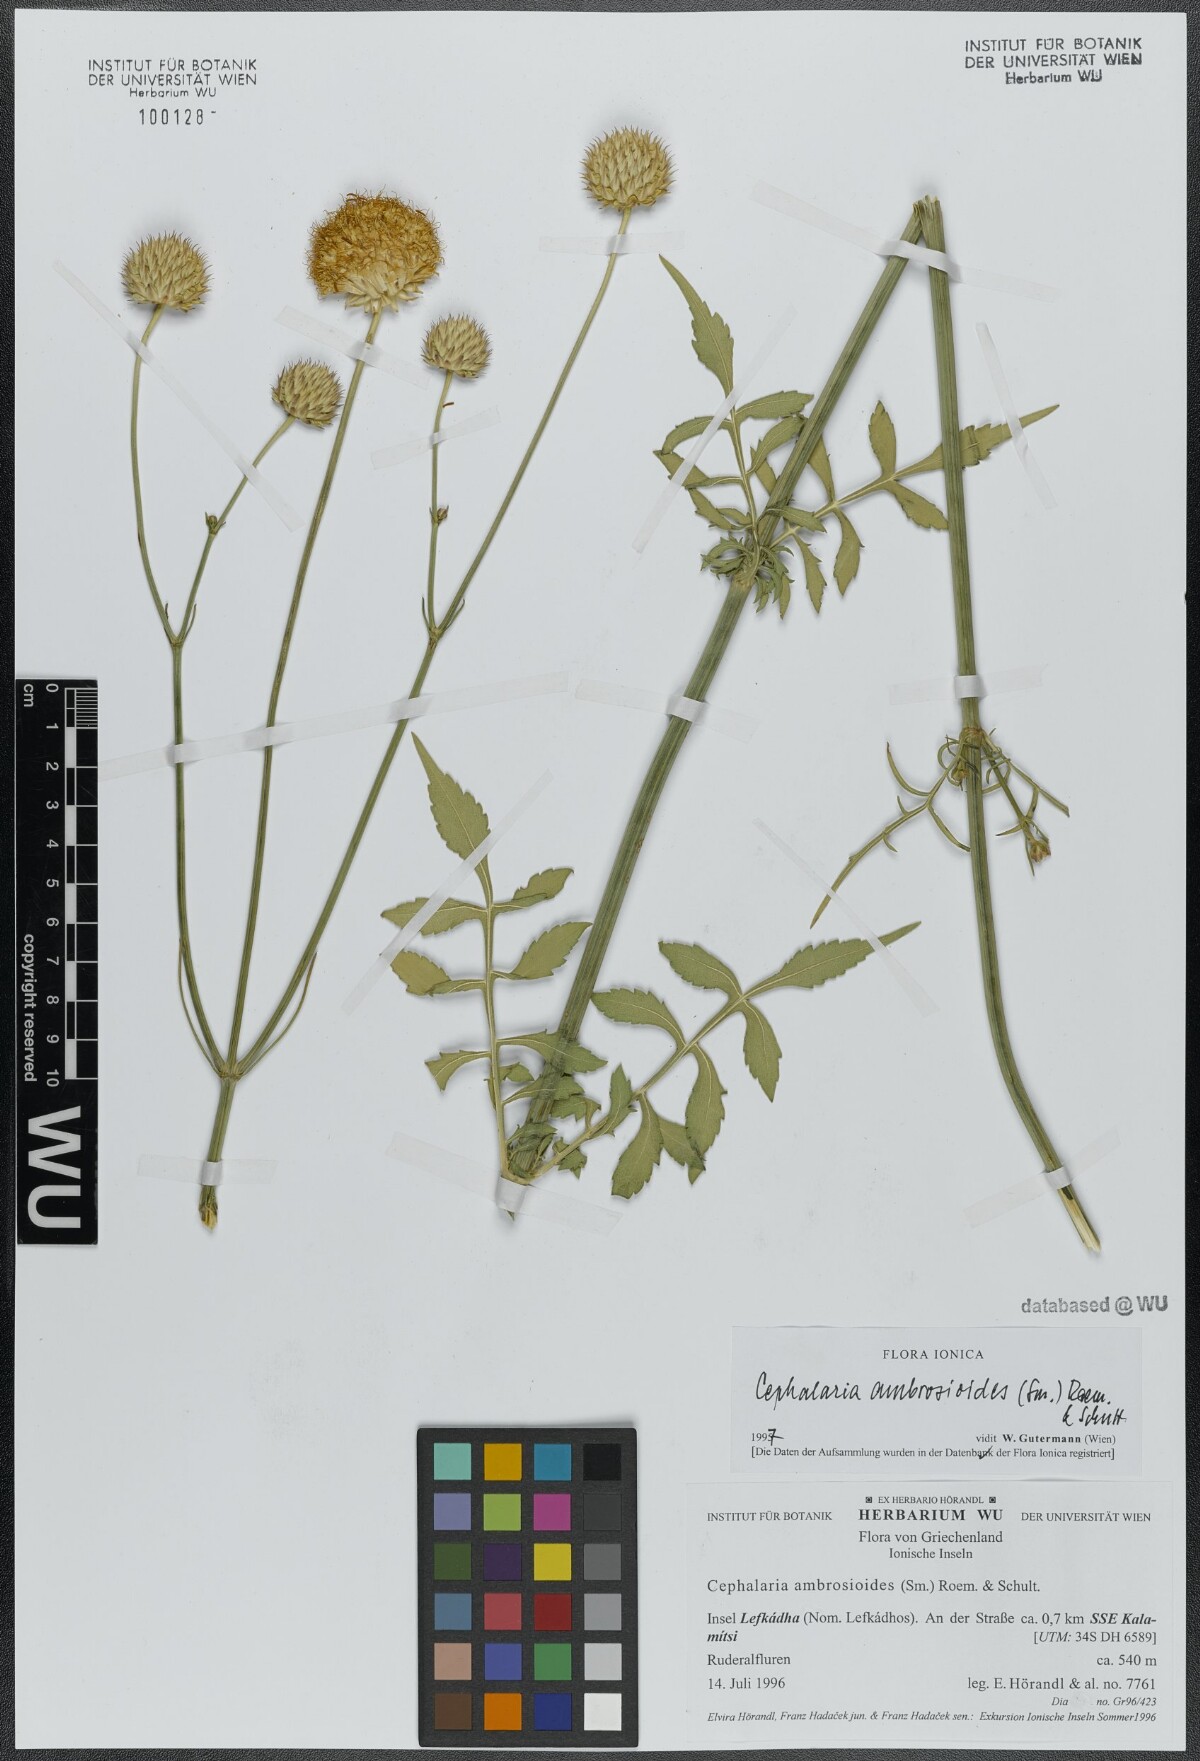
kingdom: Plantae
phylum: Tracheophyta
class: Magnoliopsida
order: Dipsacales
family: Caprifoliaceae
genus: Cephalaria
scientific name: Cephalaria ambrosioides
